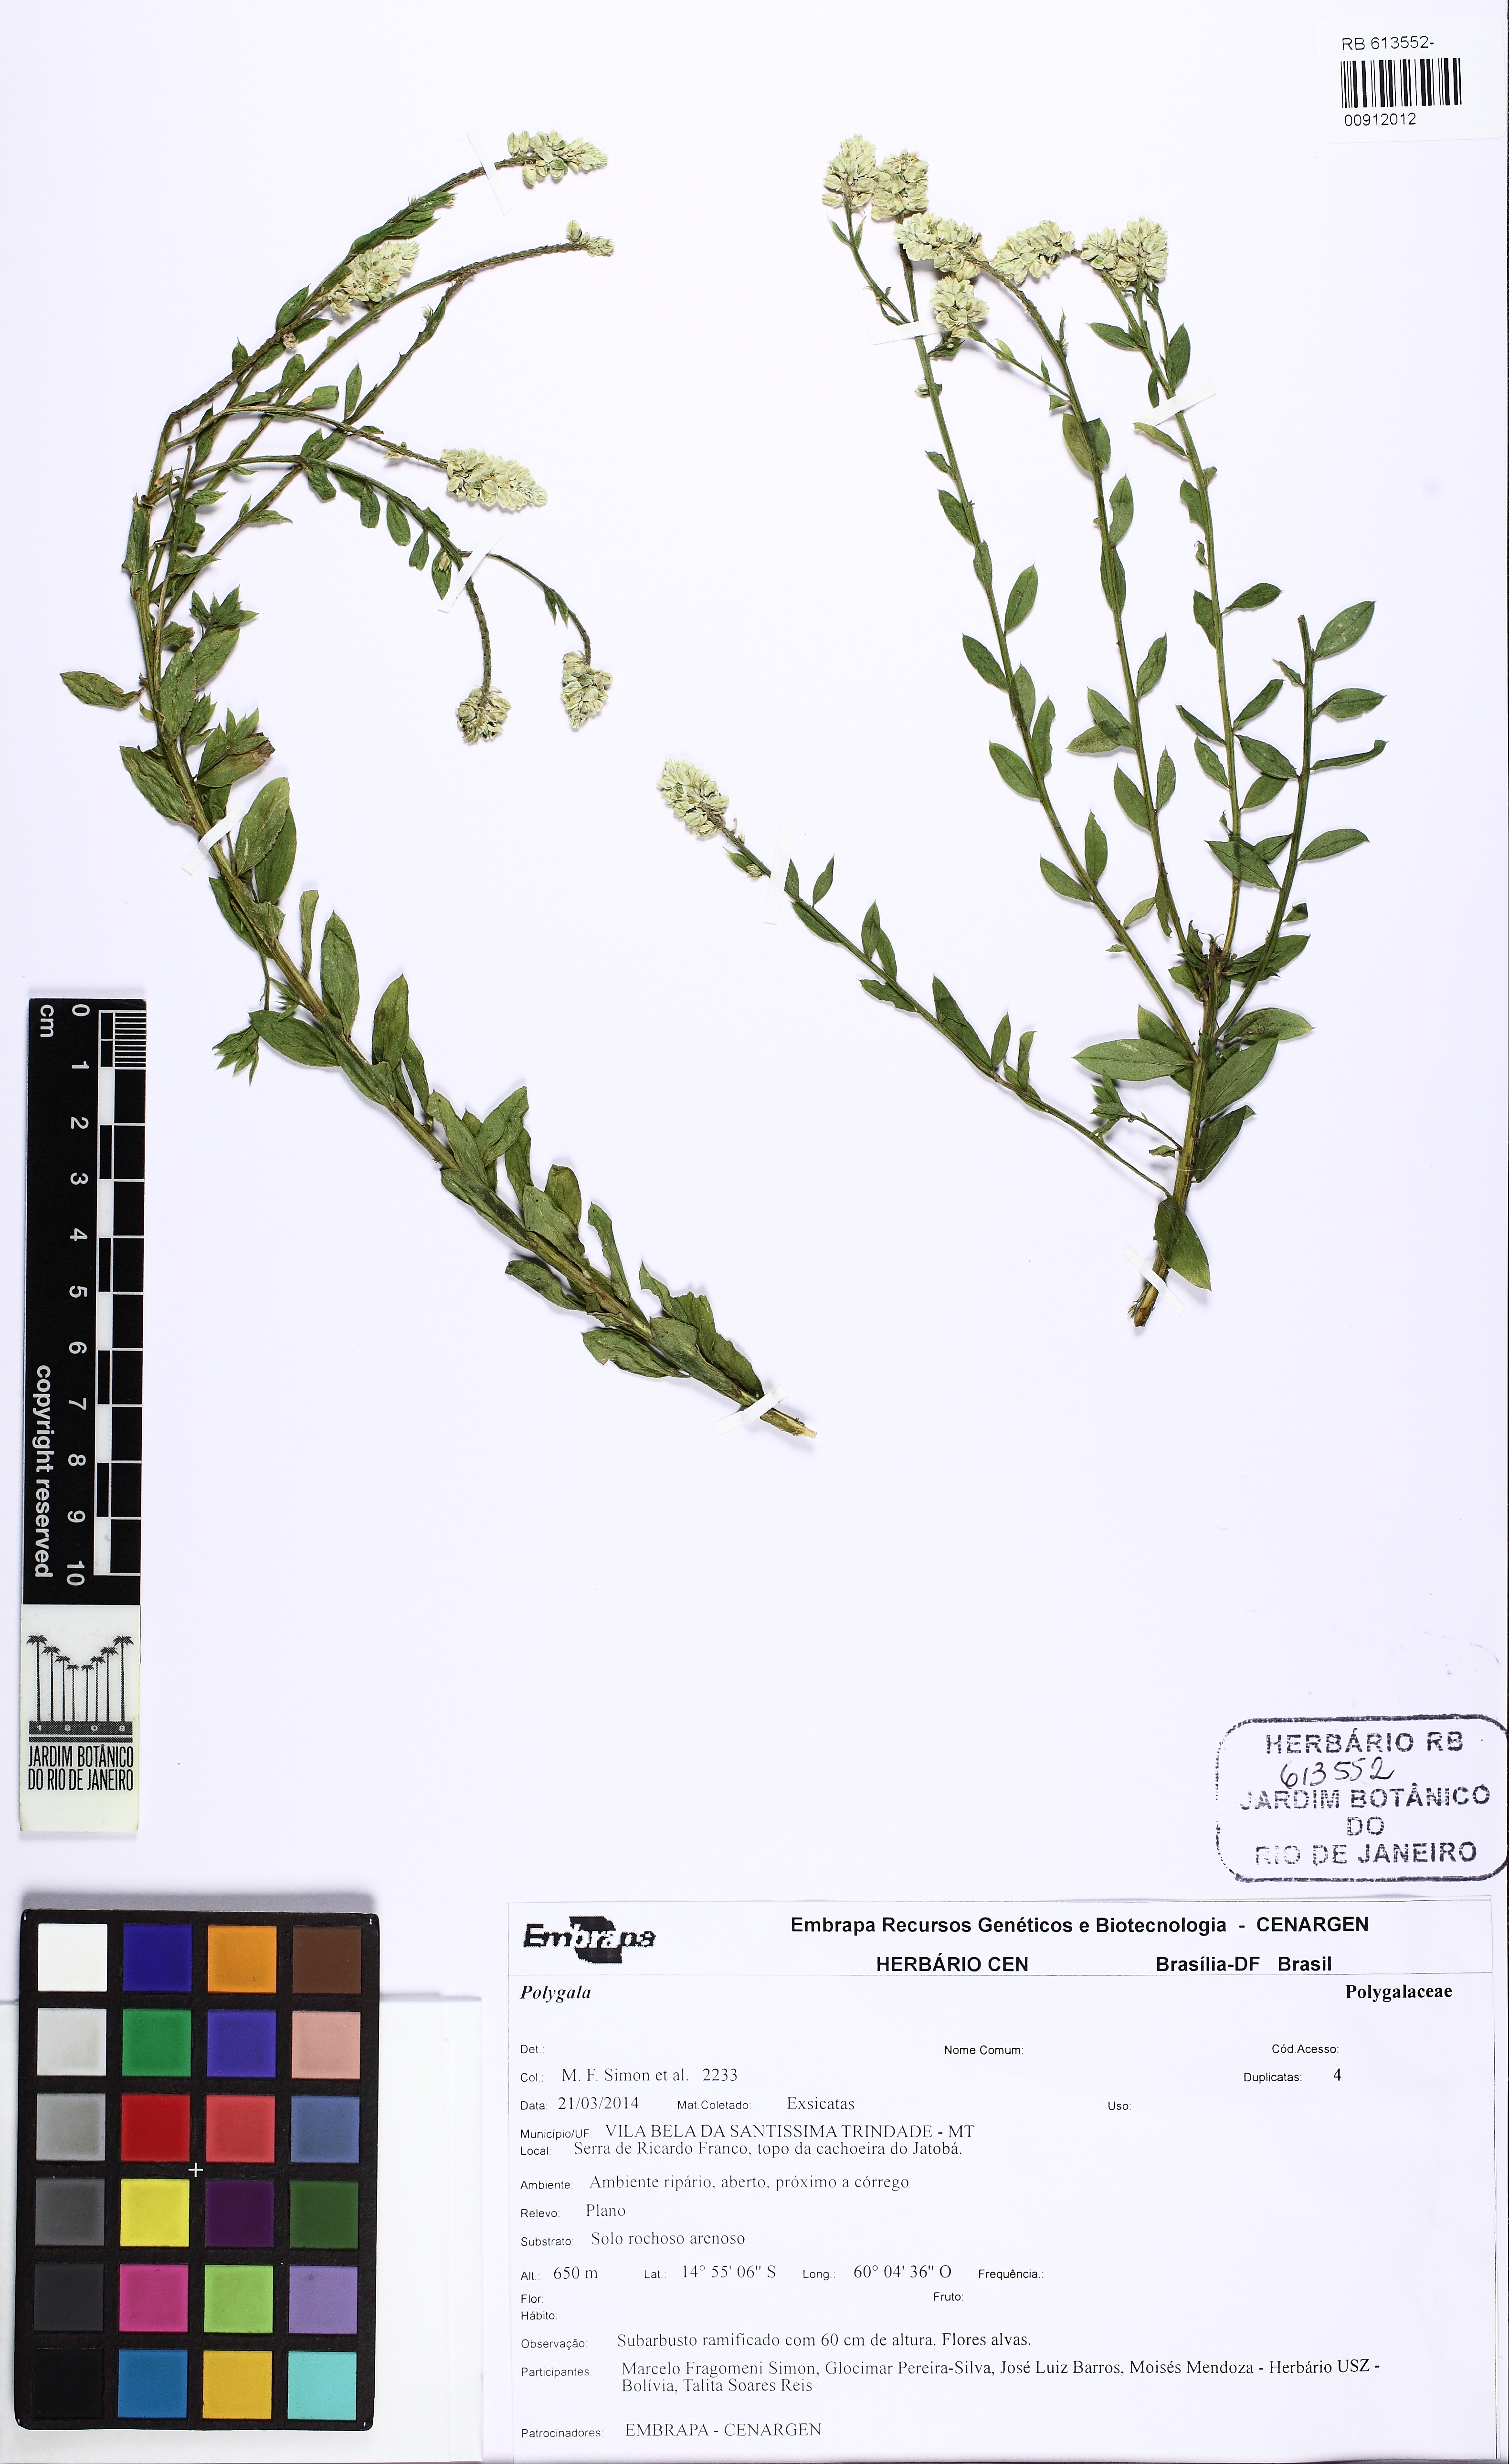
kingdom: Plantae
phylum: Tracheophyta
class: Magnoliopsida
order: Fabales
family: Polygalaceae
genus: Polygala
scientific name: Polygala irwinii
